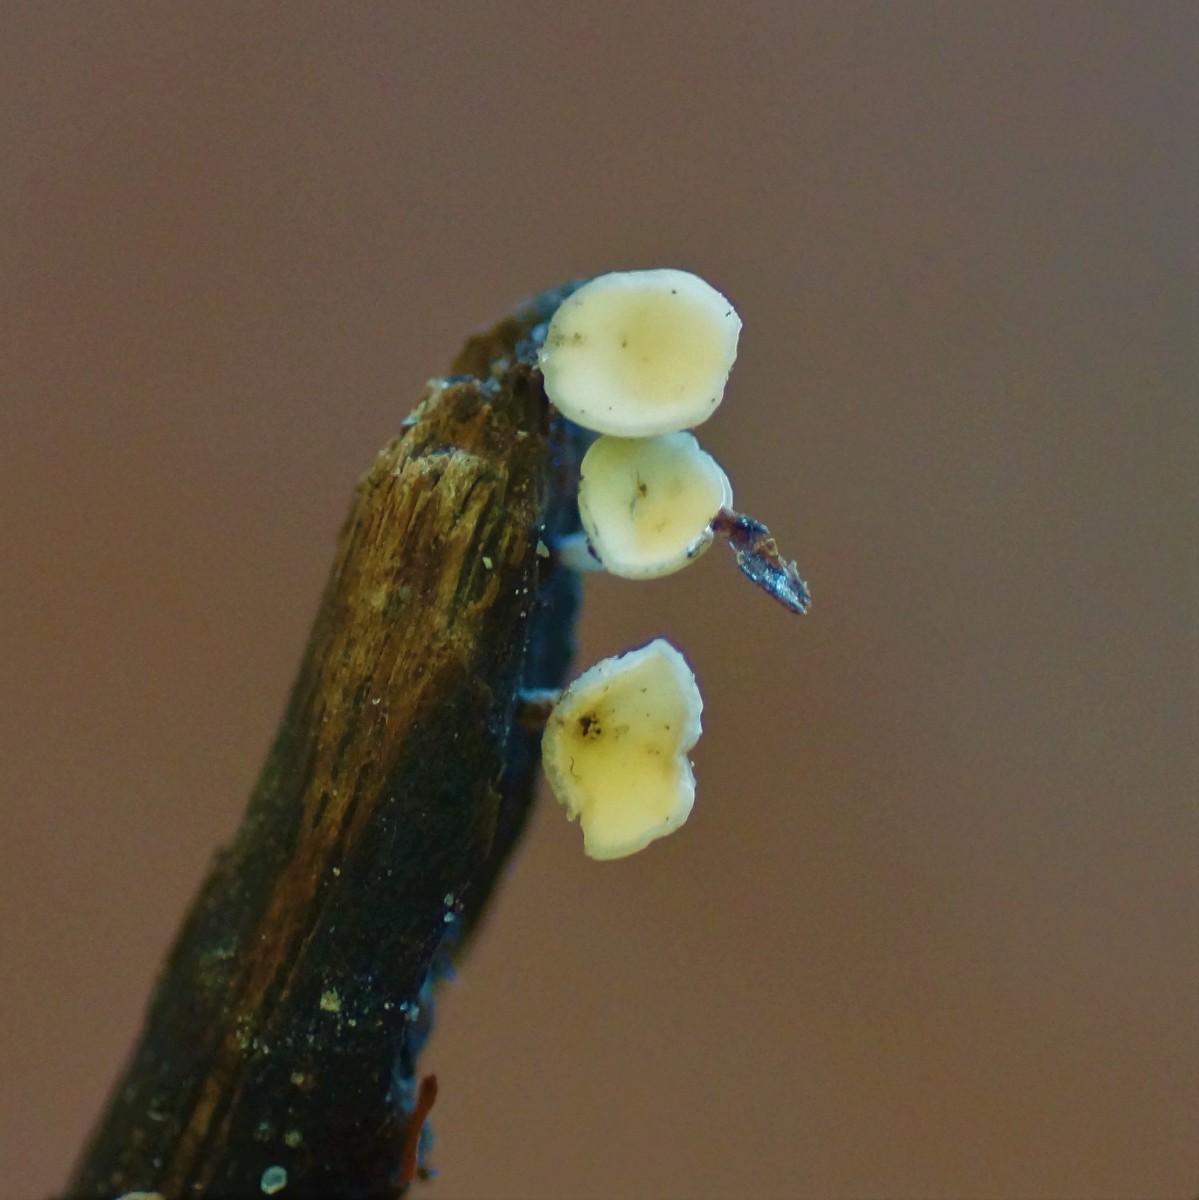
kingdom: Fungi
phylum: Ascomycota
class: Leotiomycetes
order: Helotiales
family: Helotiaceae
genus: Hymenoscyphus
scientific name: Hymenoscyphus serotinus
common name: krumsporet stilkskive
